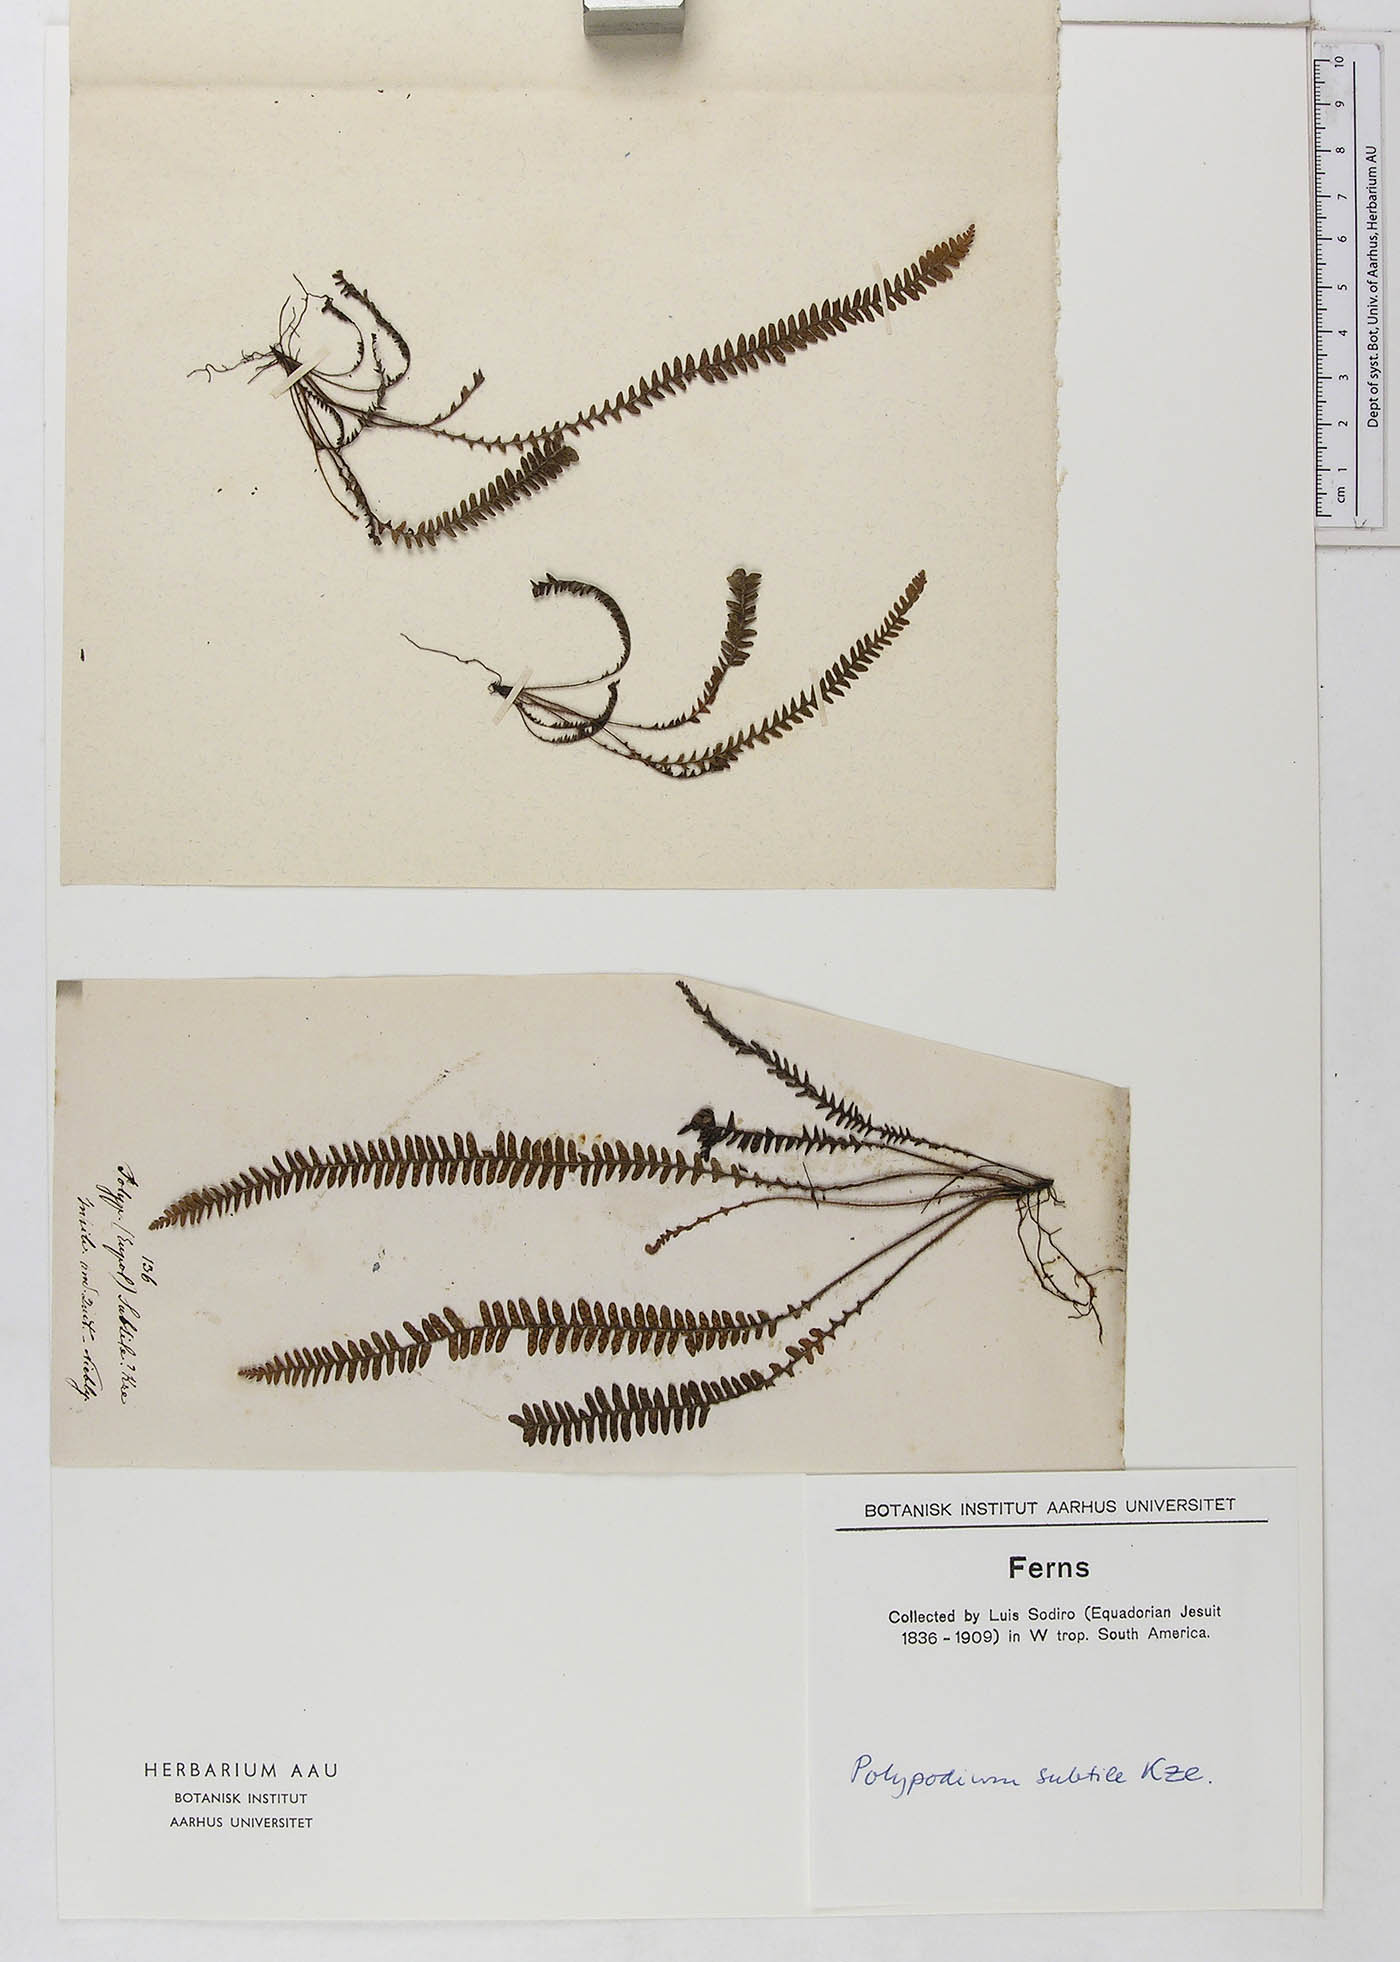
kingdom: Plantae
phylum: Tracheophyta
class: Polypodiopsida
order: Polypodiales
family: Polypodiaceae
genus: Ascogrammitis
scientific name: Ascogrammitis pichinchensis
